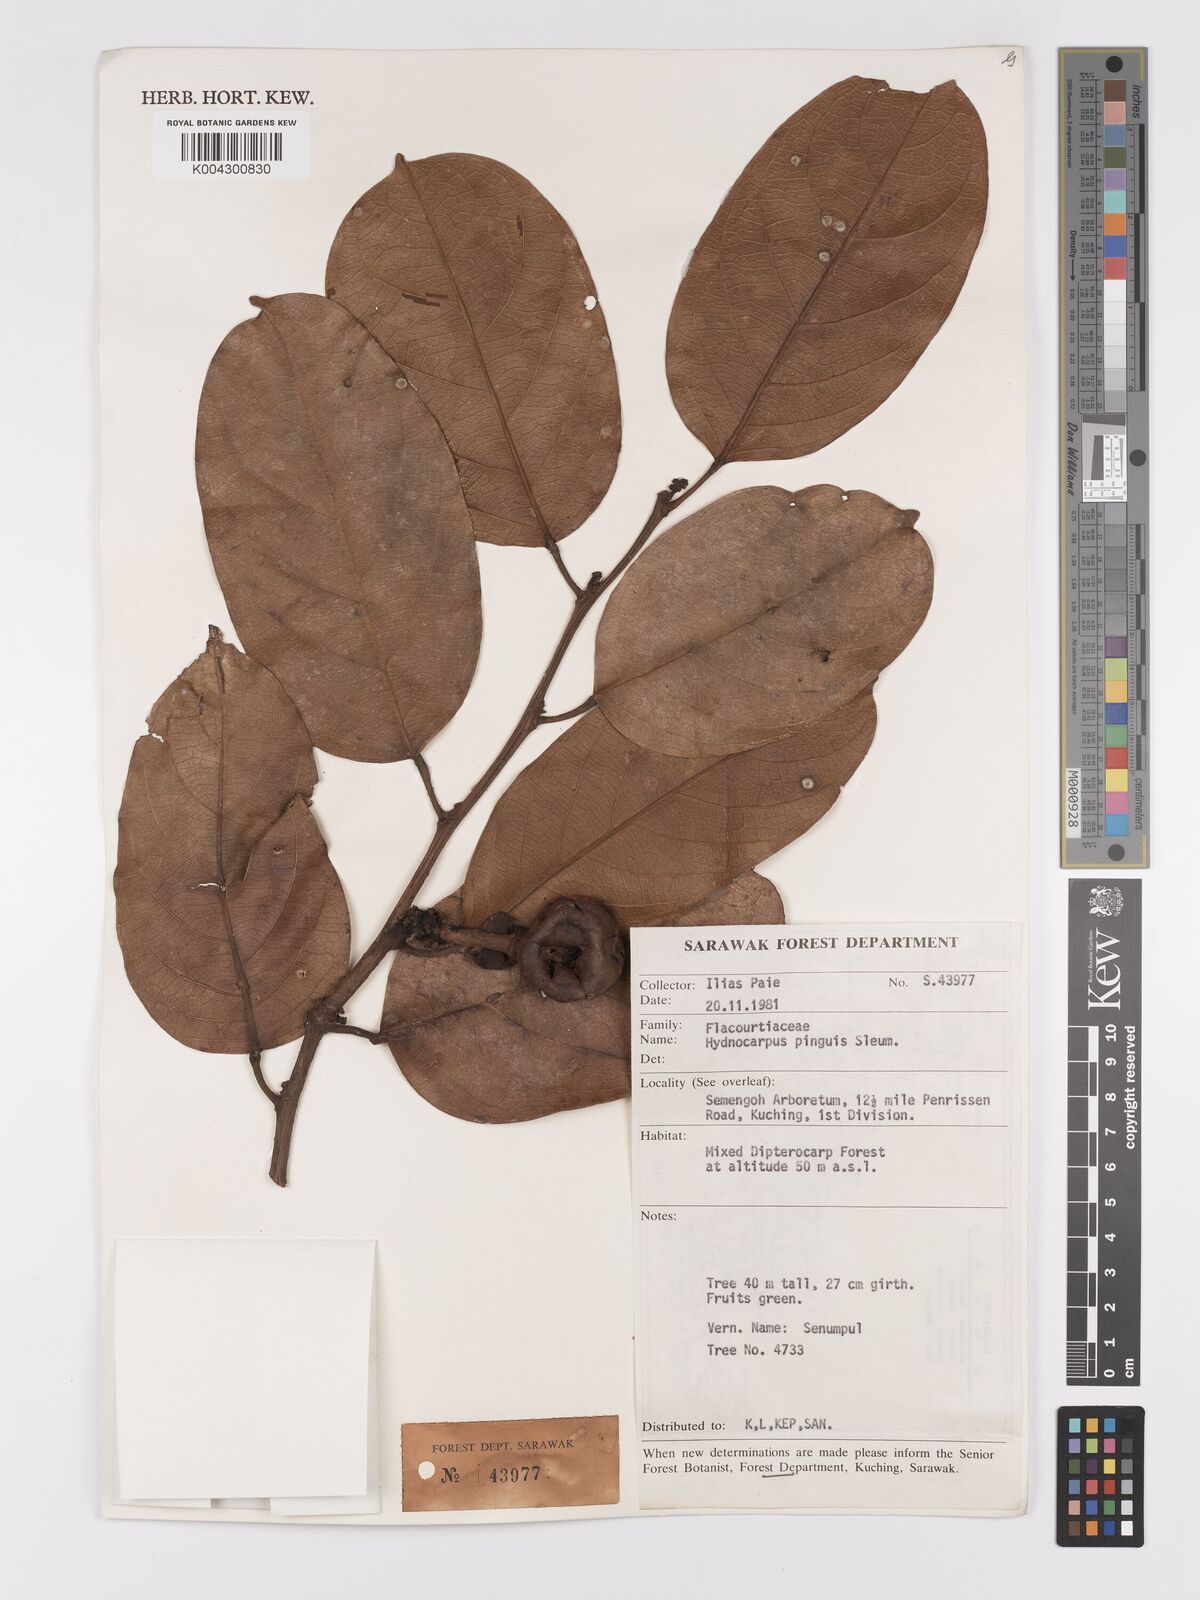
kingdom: Plantae
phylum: Tracheophyta
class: Magnoliopsida
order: Malpighiales
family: Achariaceae
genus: Hydnocarpus
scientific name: Hydnocarpus pinguis
